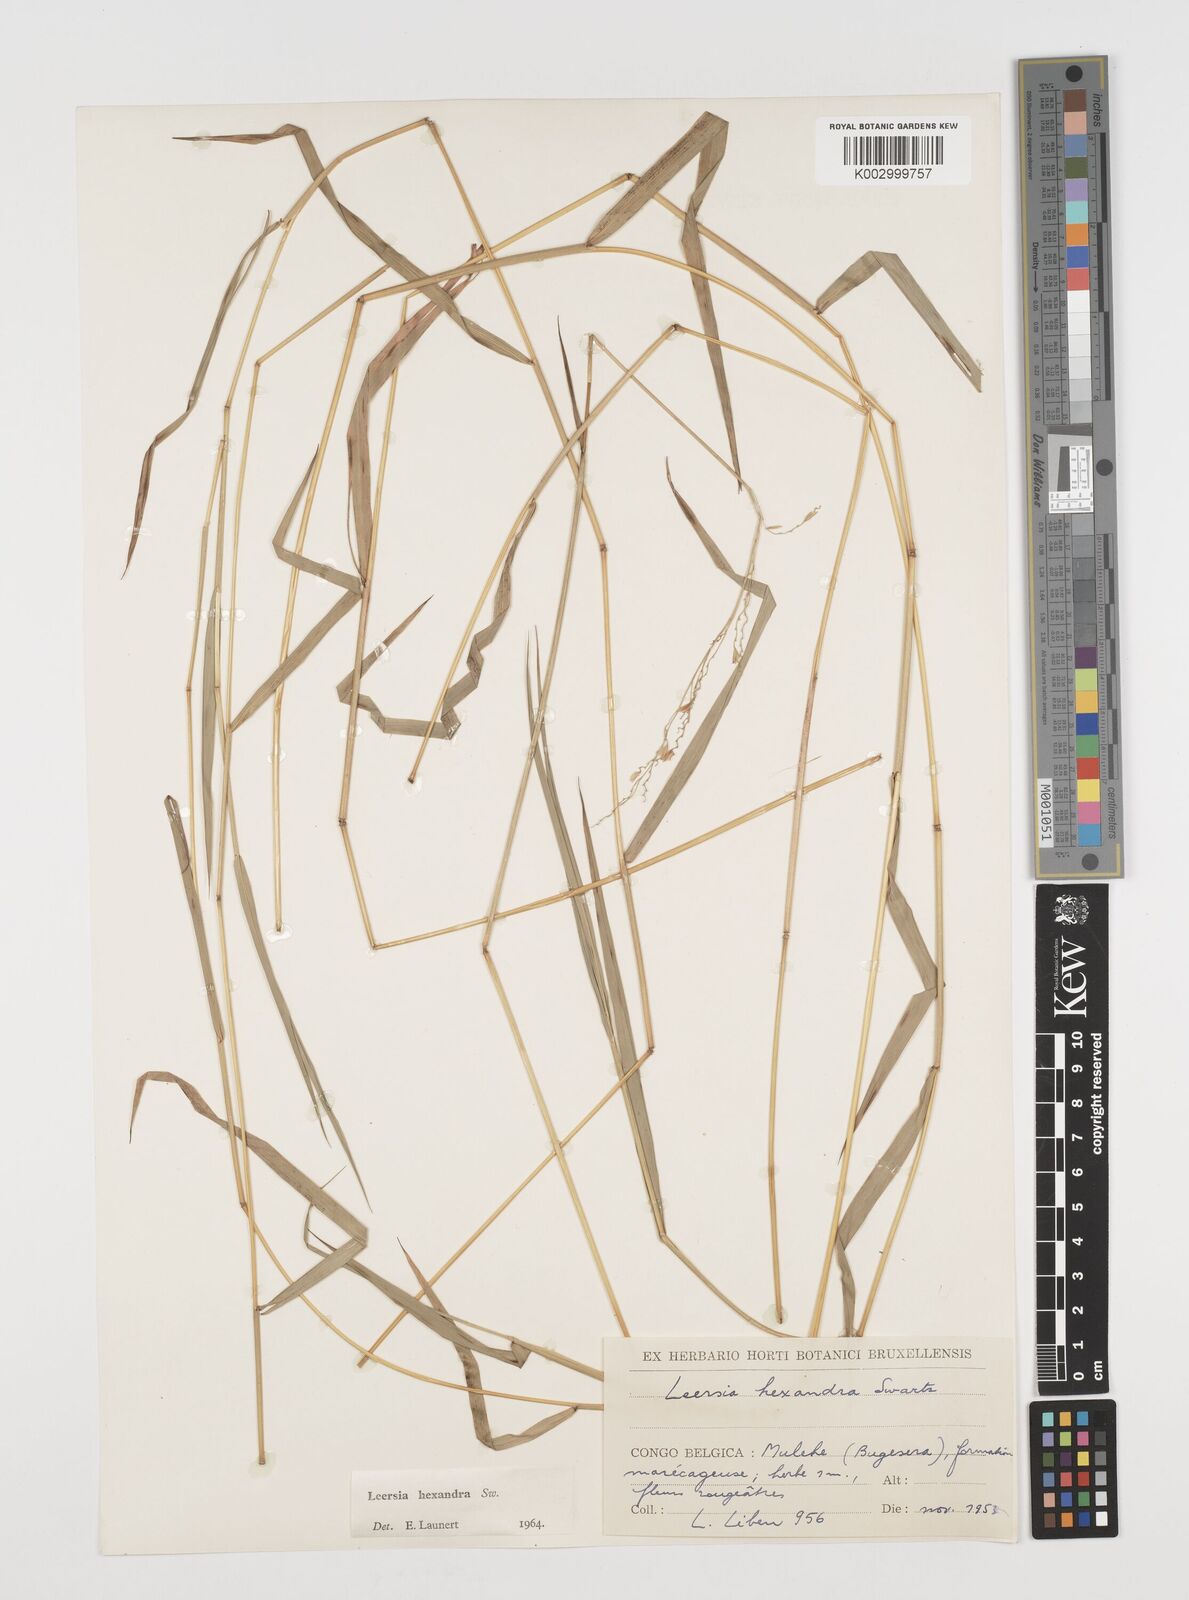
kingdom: Plantae
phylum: Tracheophyta
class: Liliopsida
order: Poales
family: Poaceae
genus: Leersia
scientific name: Leersia hexandra
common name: Southern cut grass
